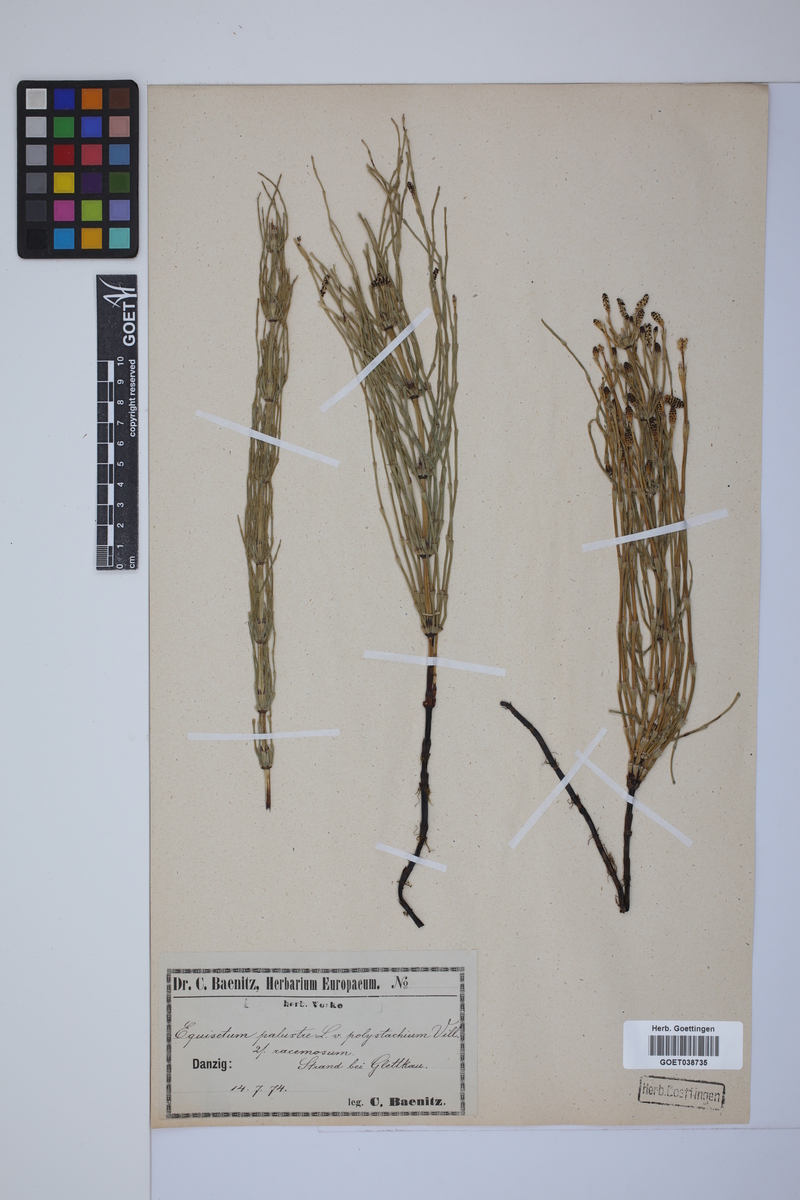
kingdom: Plantae
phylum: Tracheophyta
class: Polypodiopsida
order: Equisetales
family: Equisetaceae
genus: Equisetum
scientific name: Equisetum palustre
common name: Marsh horsetail
